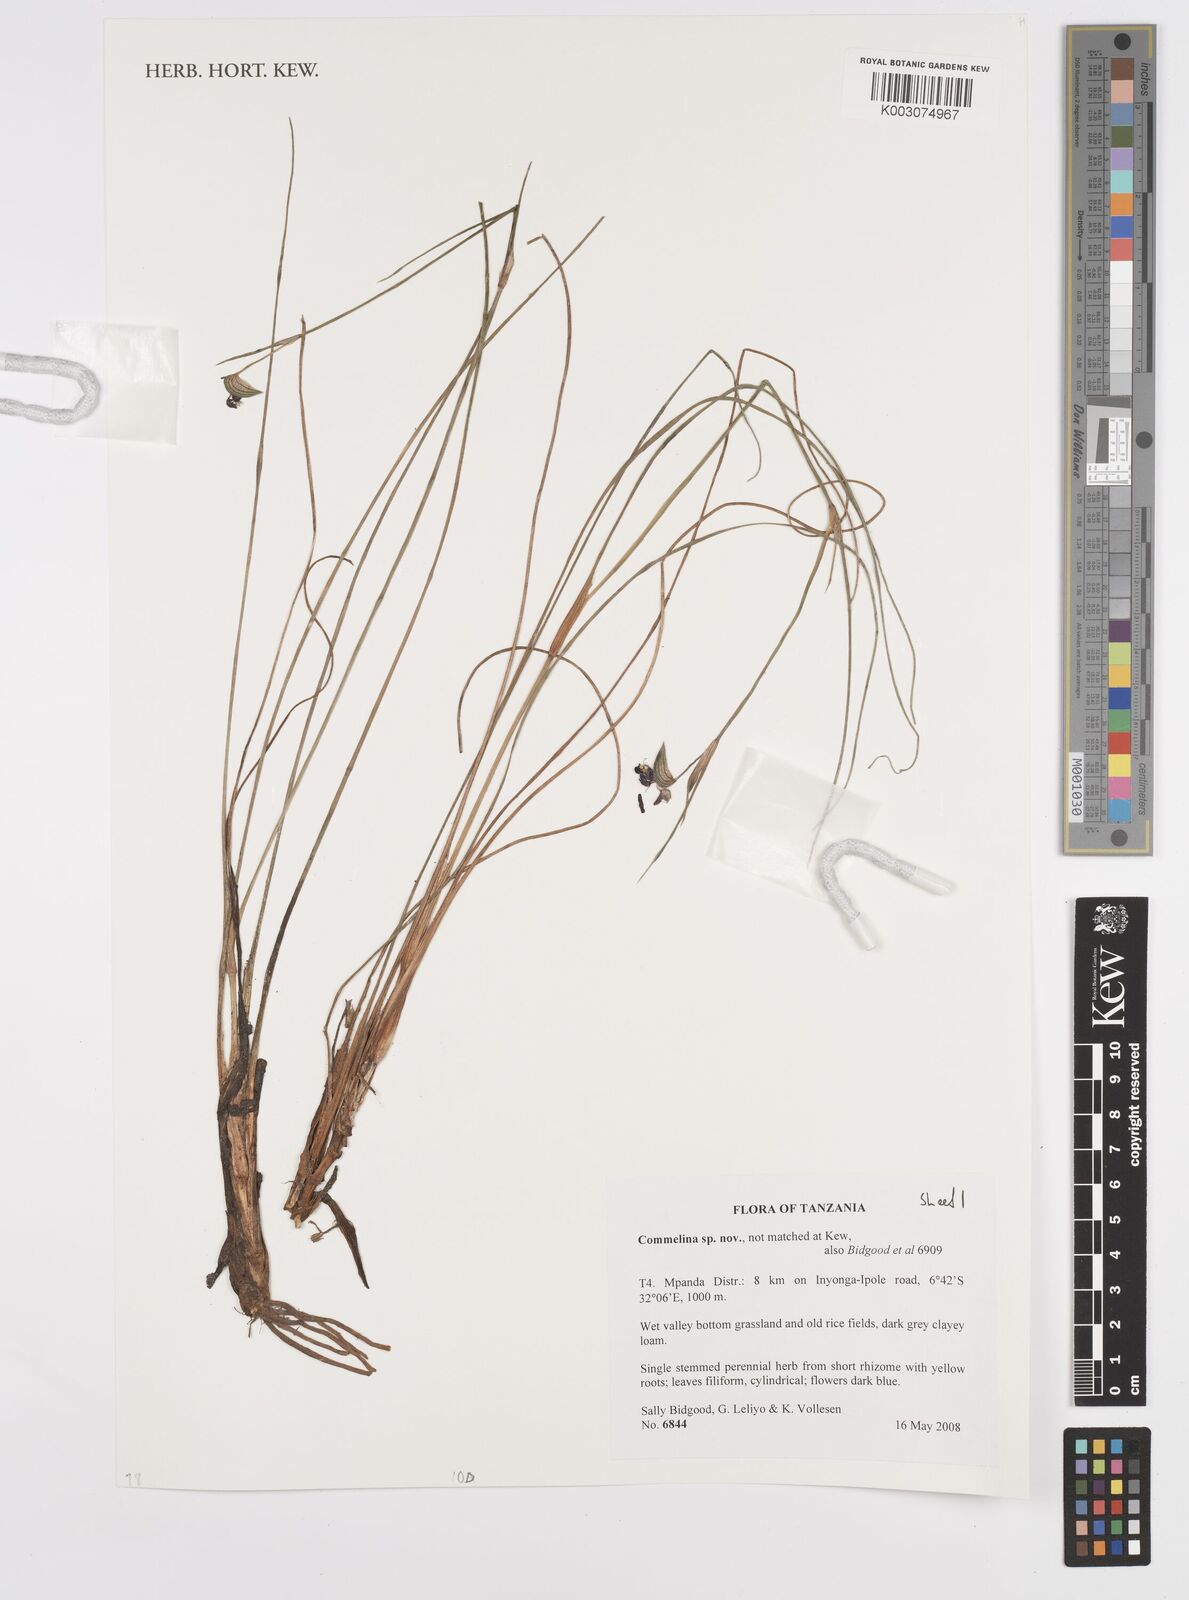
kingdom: Plantae
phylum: Tracheophyta
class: Liliopsida
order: Commelinales
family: Commelinaceae
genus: Commelina
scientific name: Commelina
